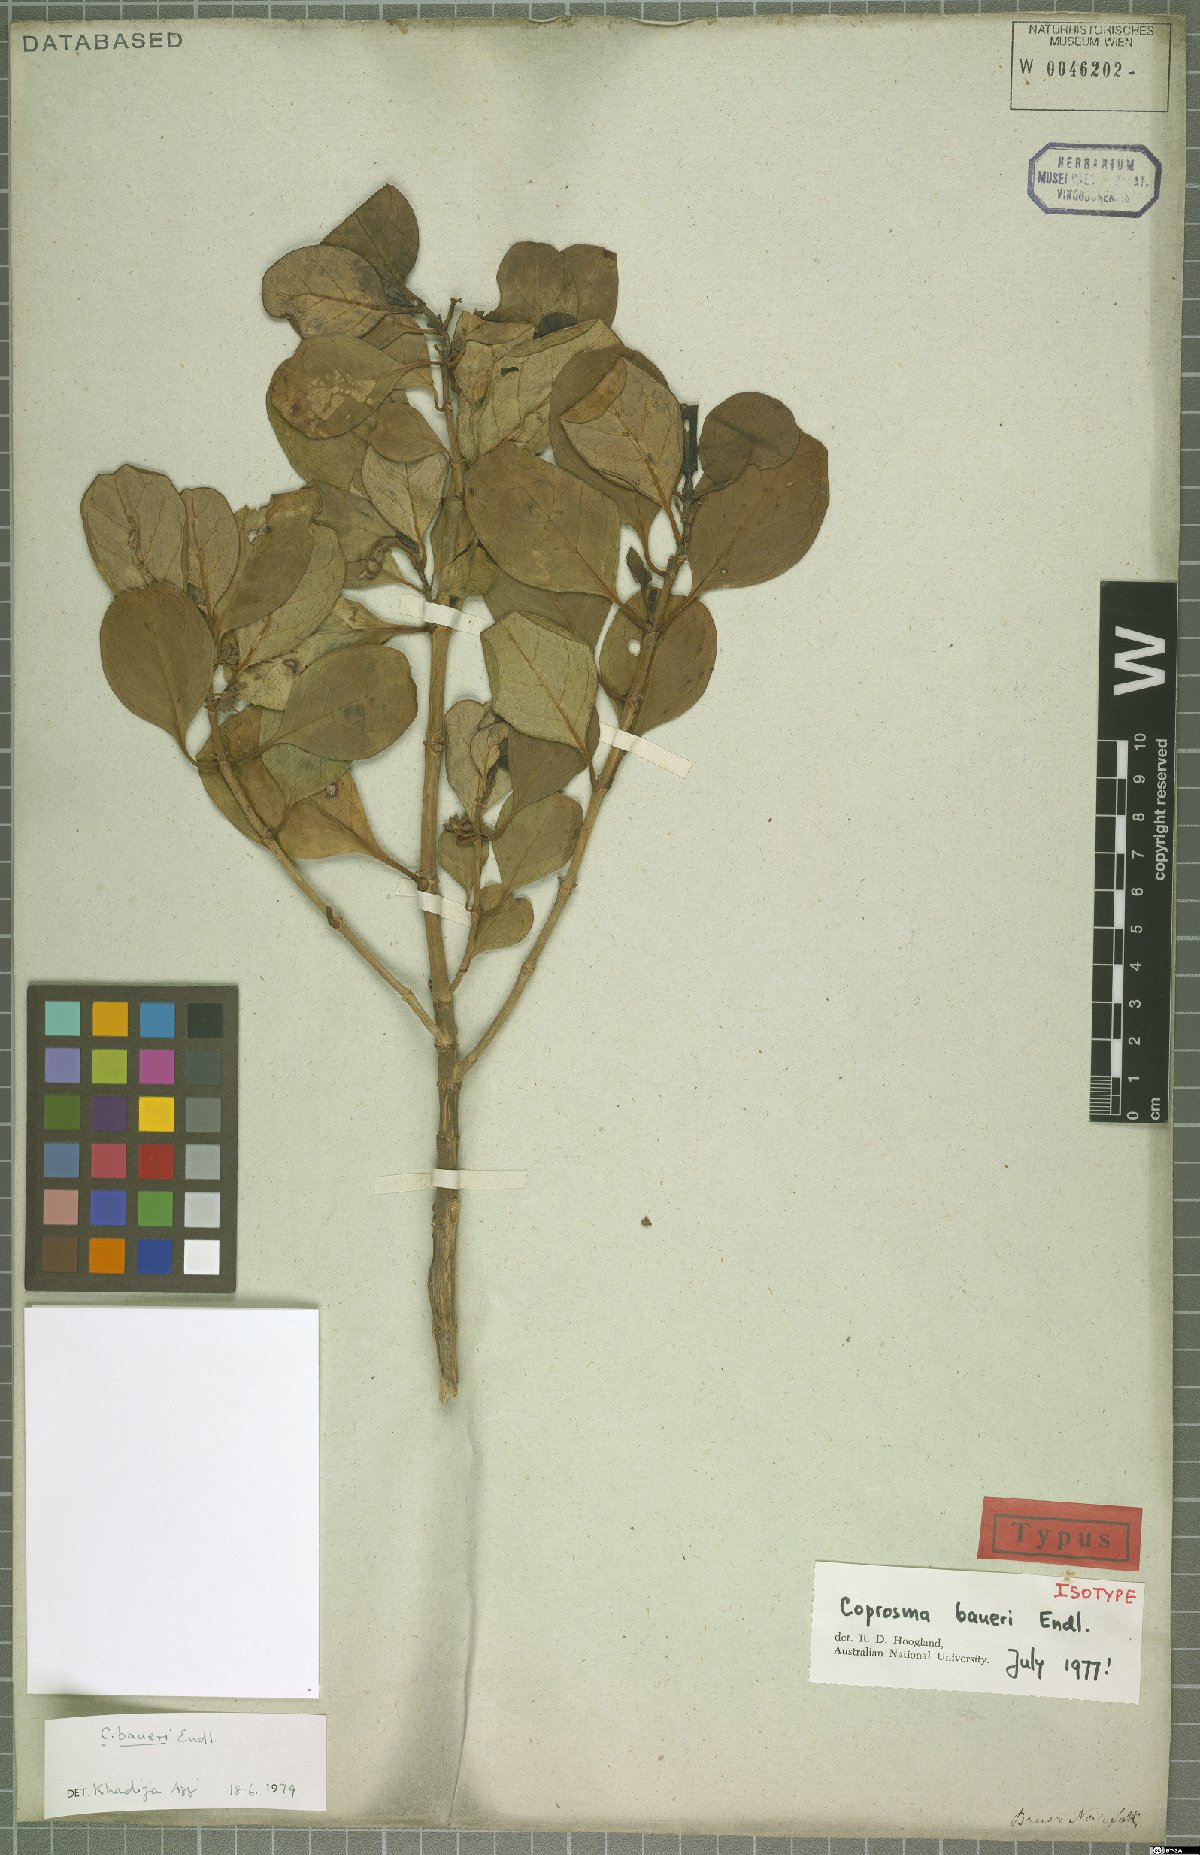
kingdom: Plantae
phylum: Tracheophyta
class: Magnoliopsida
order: Gentianales
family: Rubiaceae
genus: Coprosma
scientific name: Coprosma baueri
